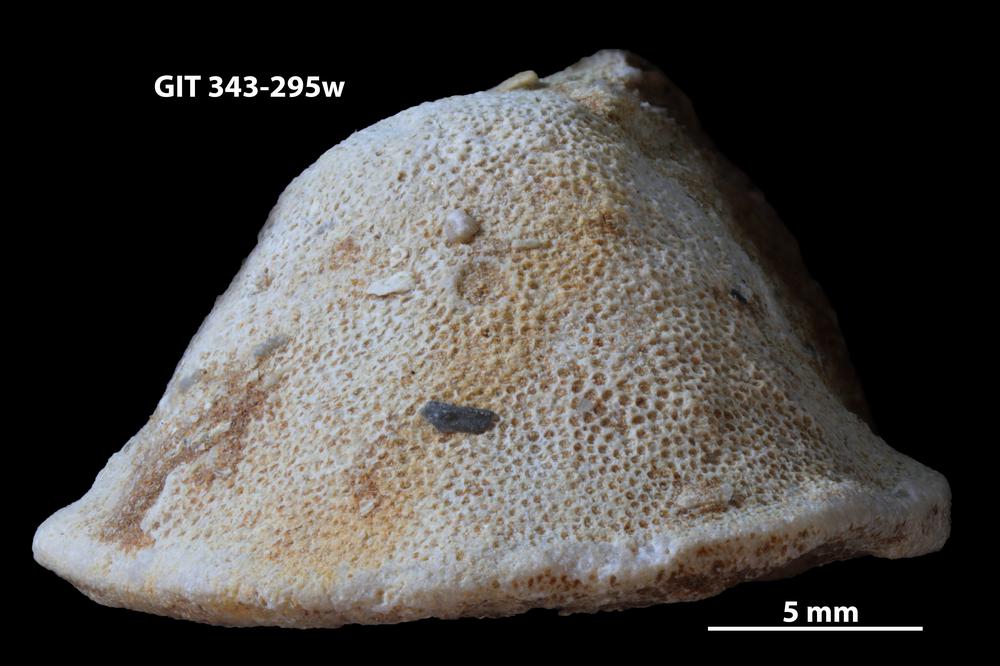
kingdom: Animalia
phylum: Bryozoa
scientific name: Bryozoa
